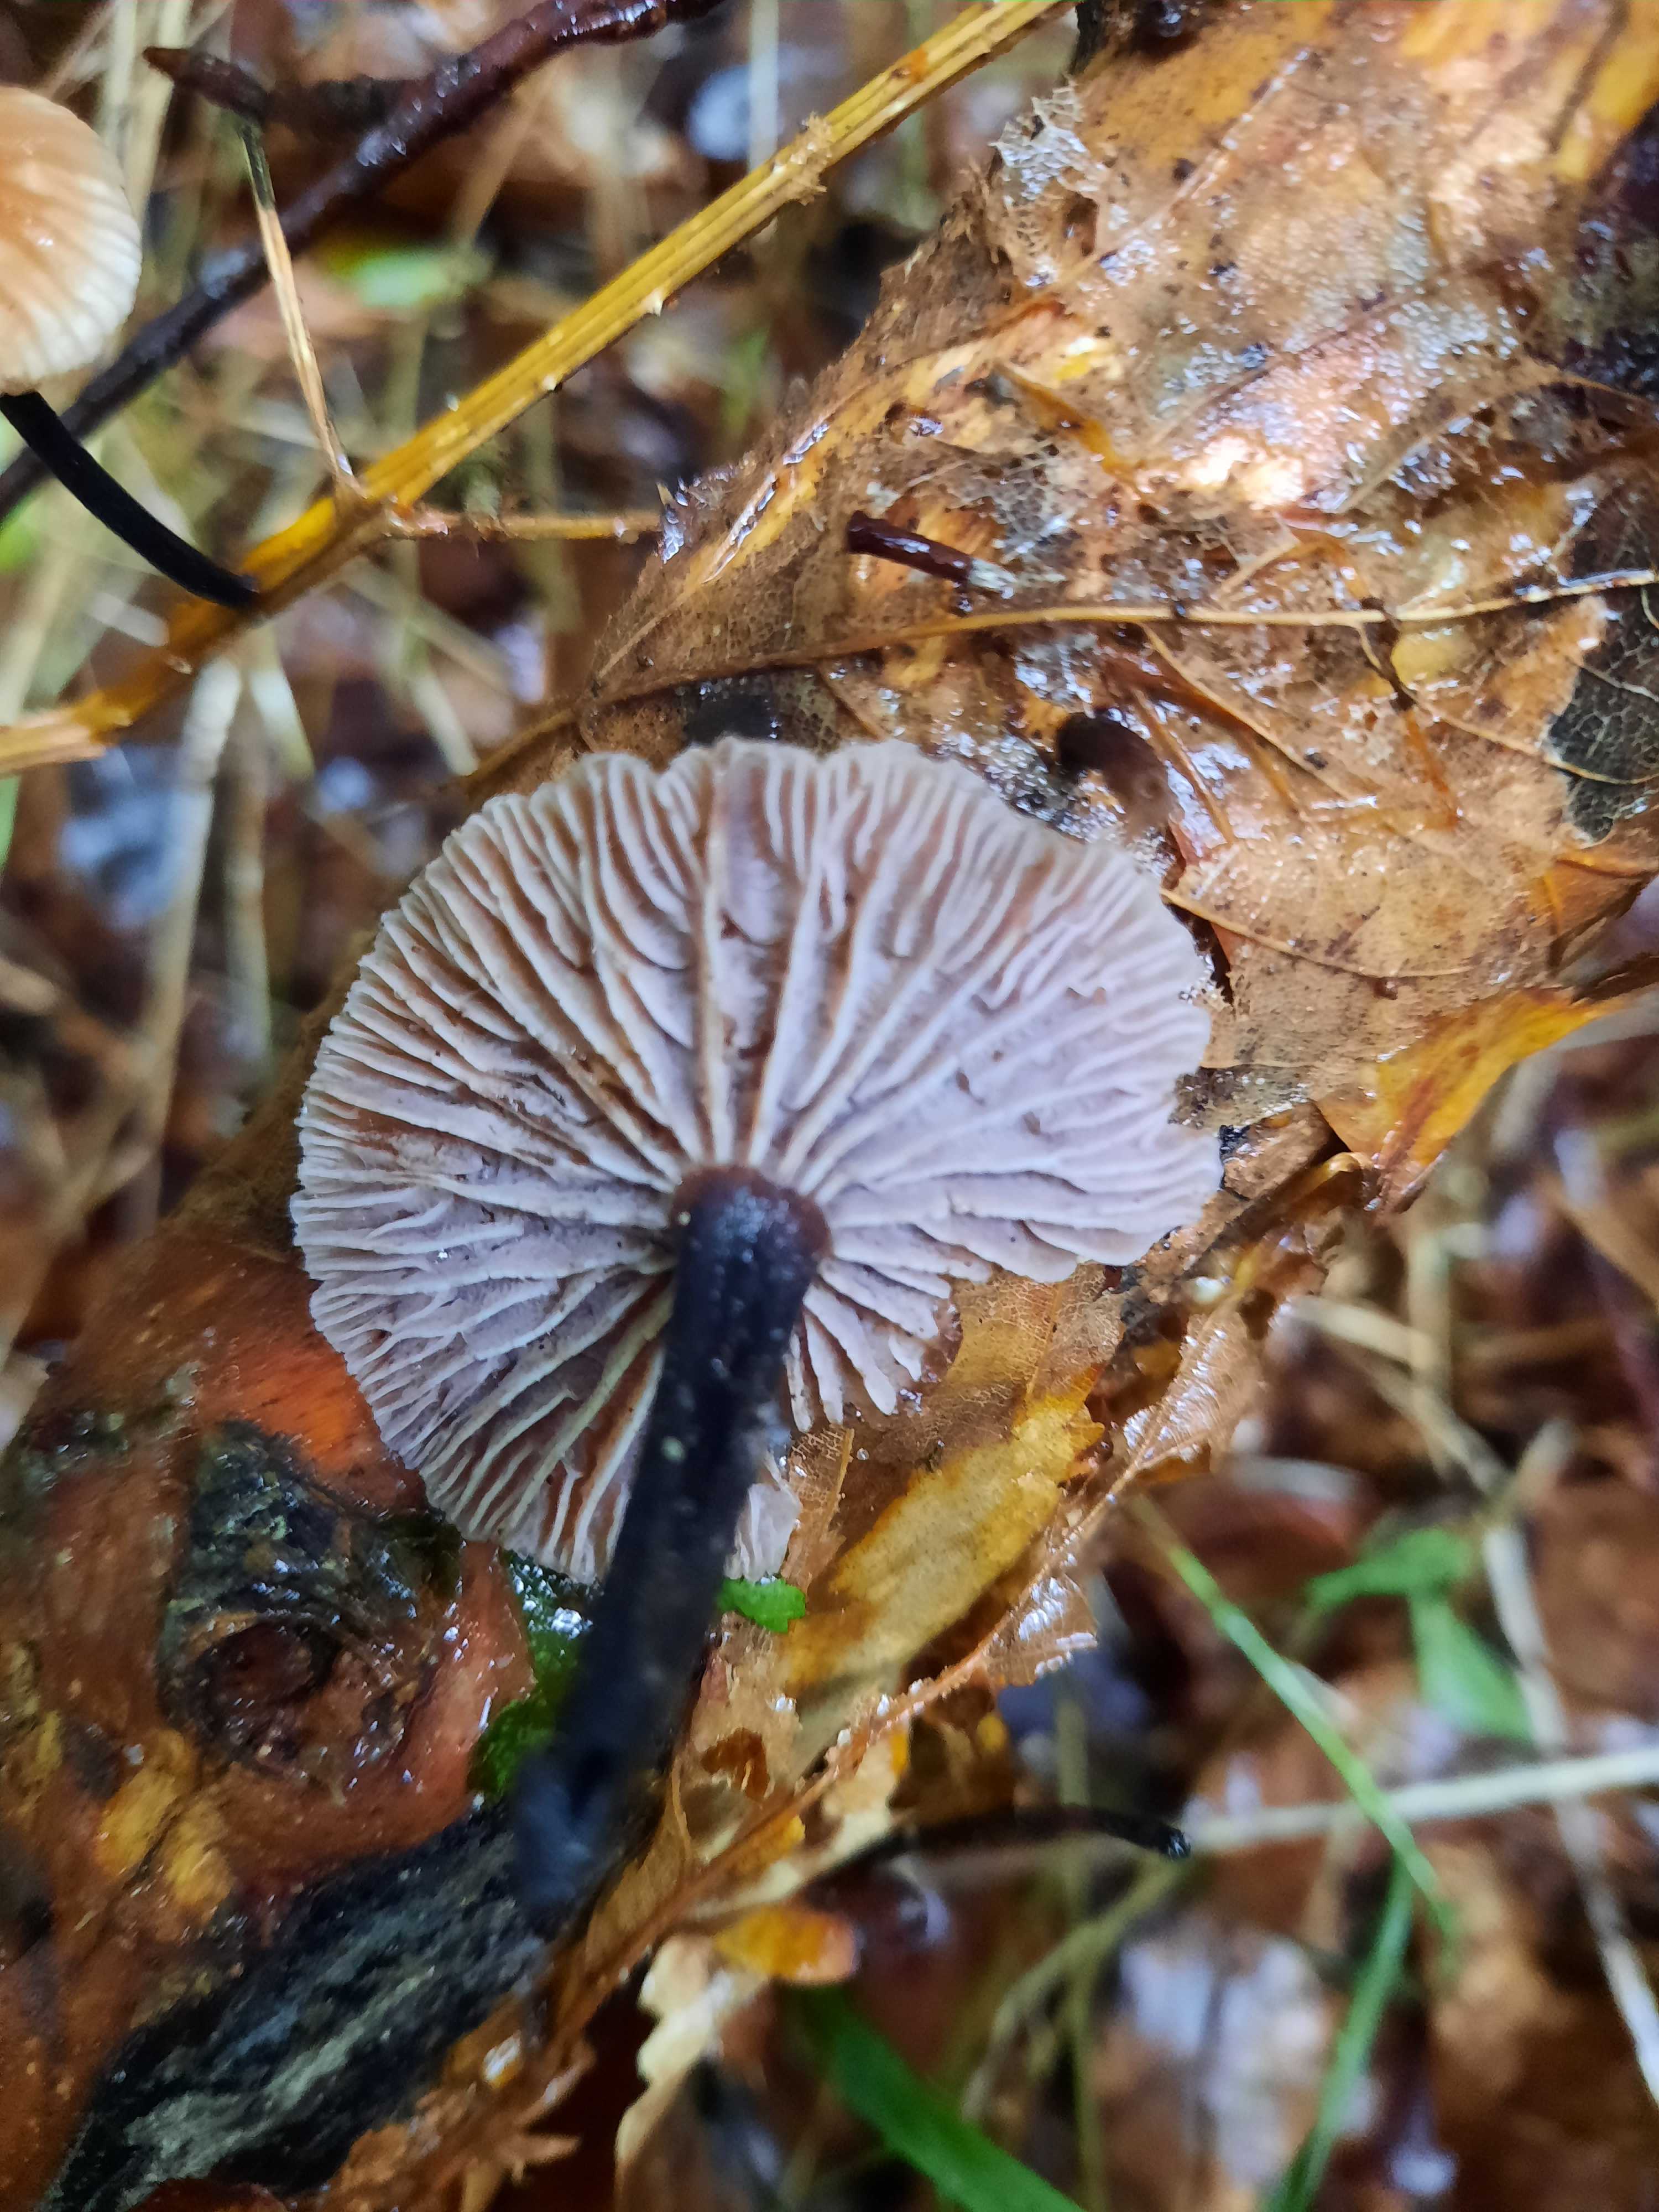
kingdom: Fungi
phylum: Basidiomycota
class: Agaricomycetes
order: Agaricales
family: Omphalotaceae
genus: Gymnopus
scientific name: Gymnopus foetidus
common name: stinkende fladhat
